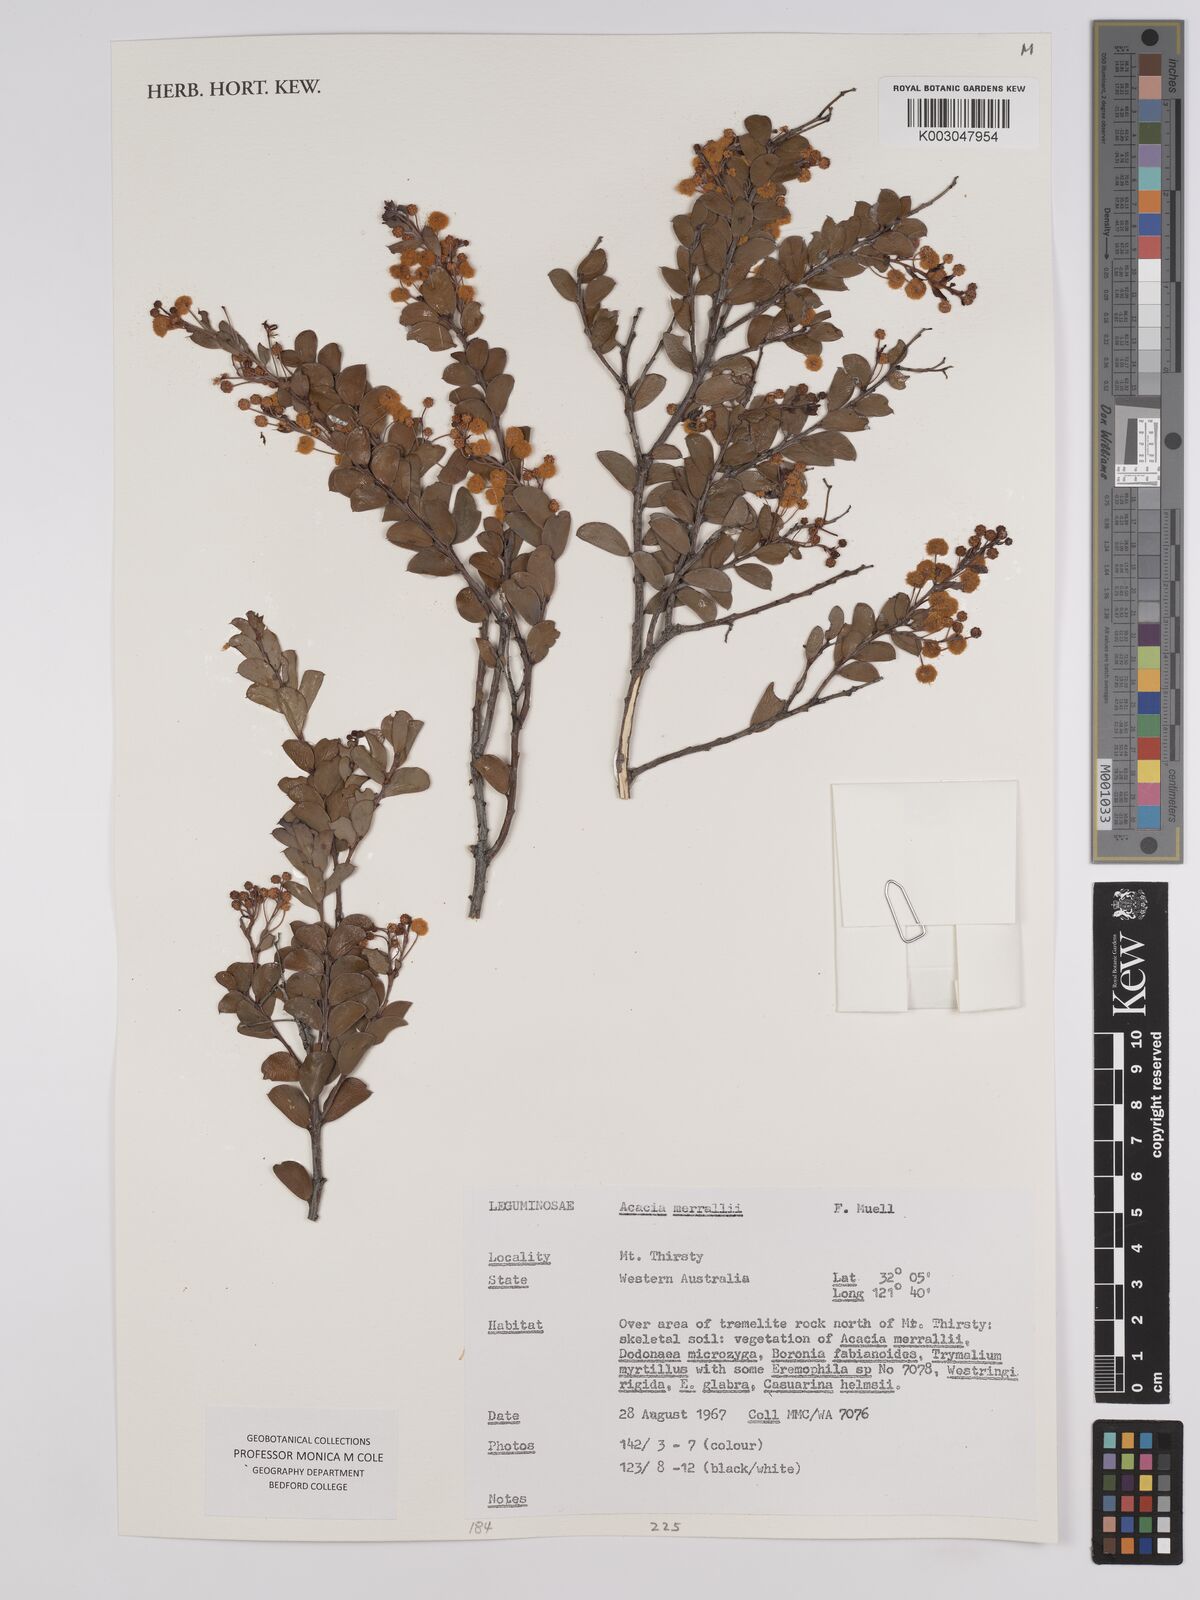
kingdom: Plantae
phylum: Tracheophyta
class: Magnoliopsida
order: Fabales
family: Fabaceae
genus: Acacia
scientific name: Acacia merrallii
